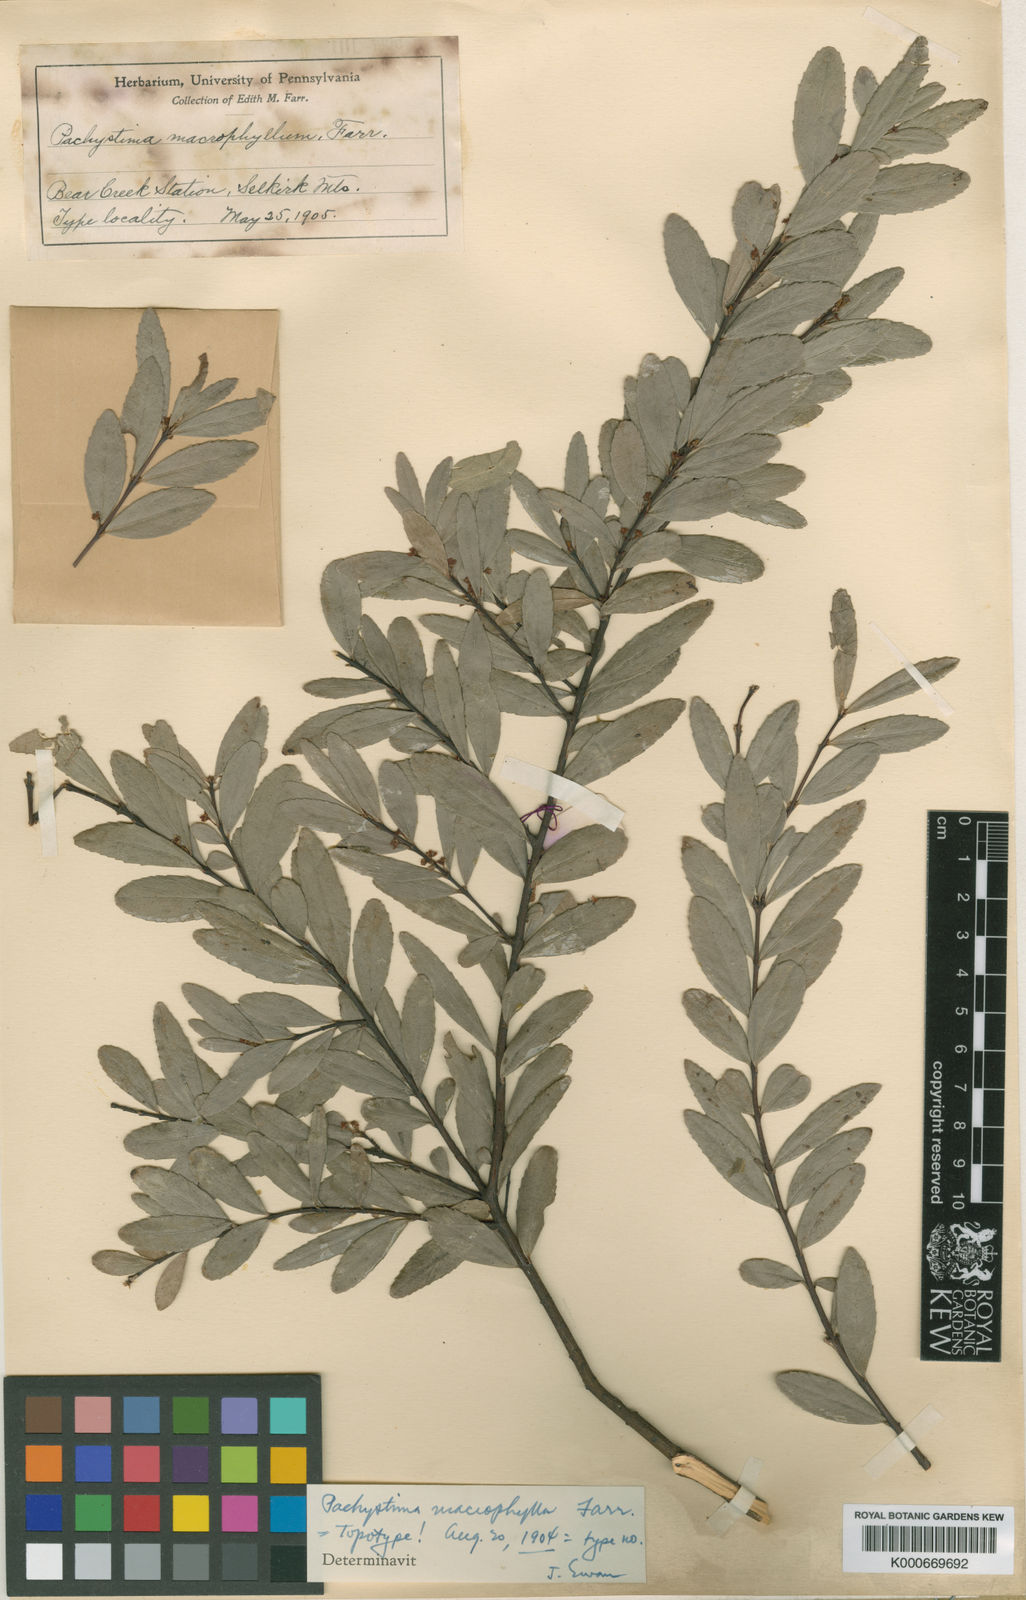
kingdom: Plantae
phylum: Tracheophyta
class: Magnoliopsida
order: Celastrales
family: Celastraceae
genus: Paxistima
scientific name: Paxistima myrsinites
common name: Mountain-lover
